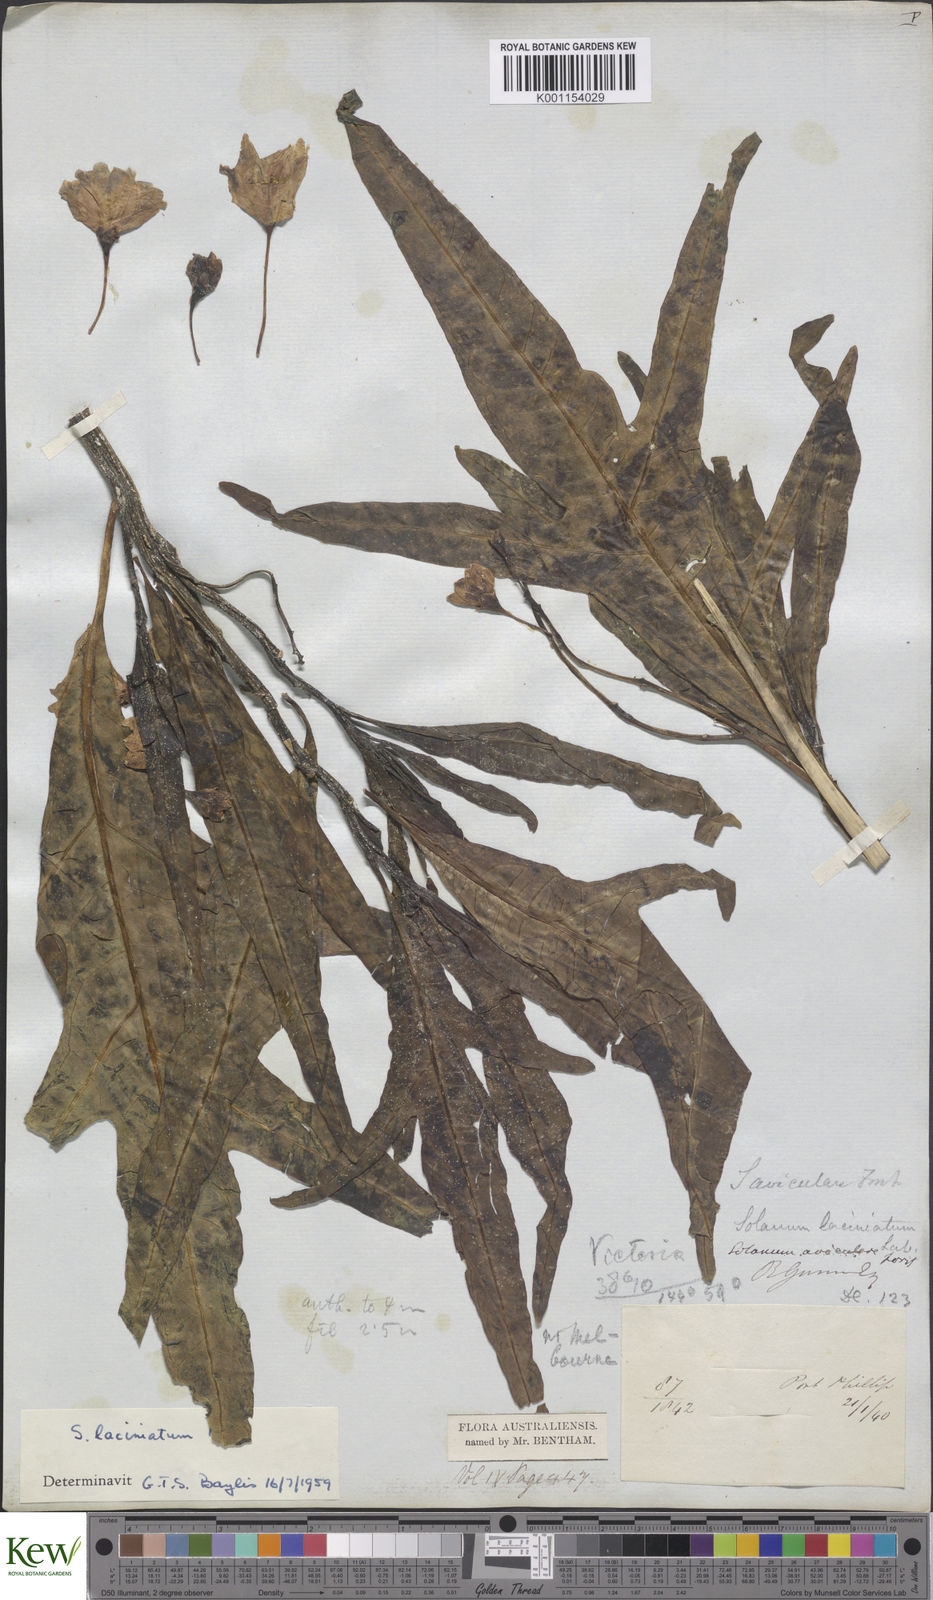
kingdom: Plantae
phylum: Tracheophyta
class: Magnoliopsida
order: Solanales
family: Solanaceae
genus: Solanum
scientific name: Solanum laciniatum
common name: Kangaroo-apple
